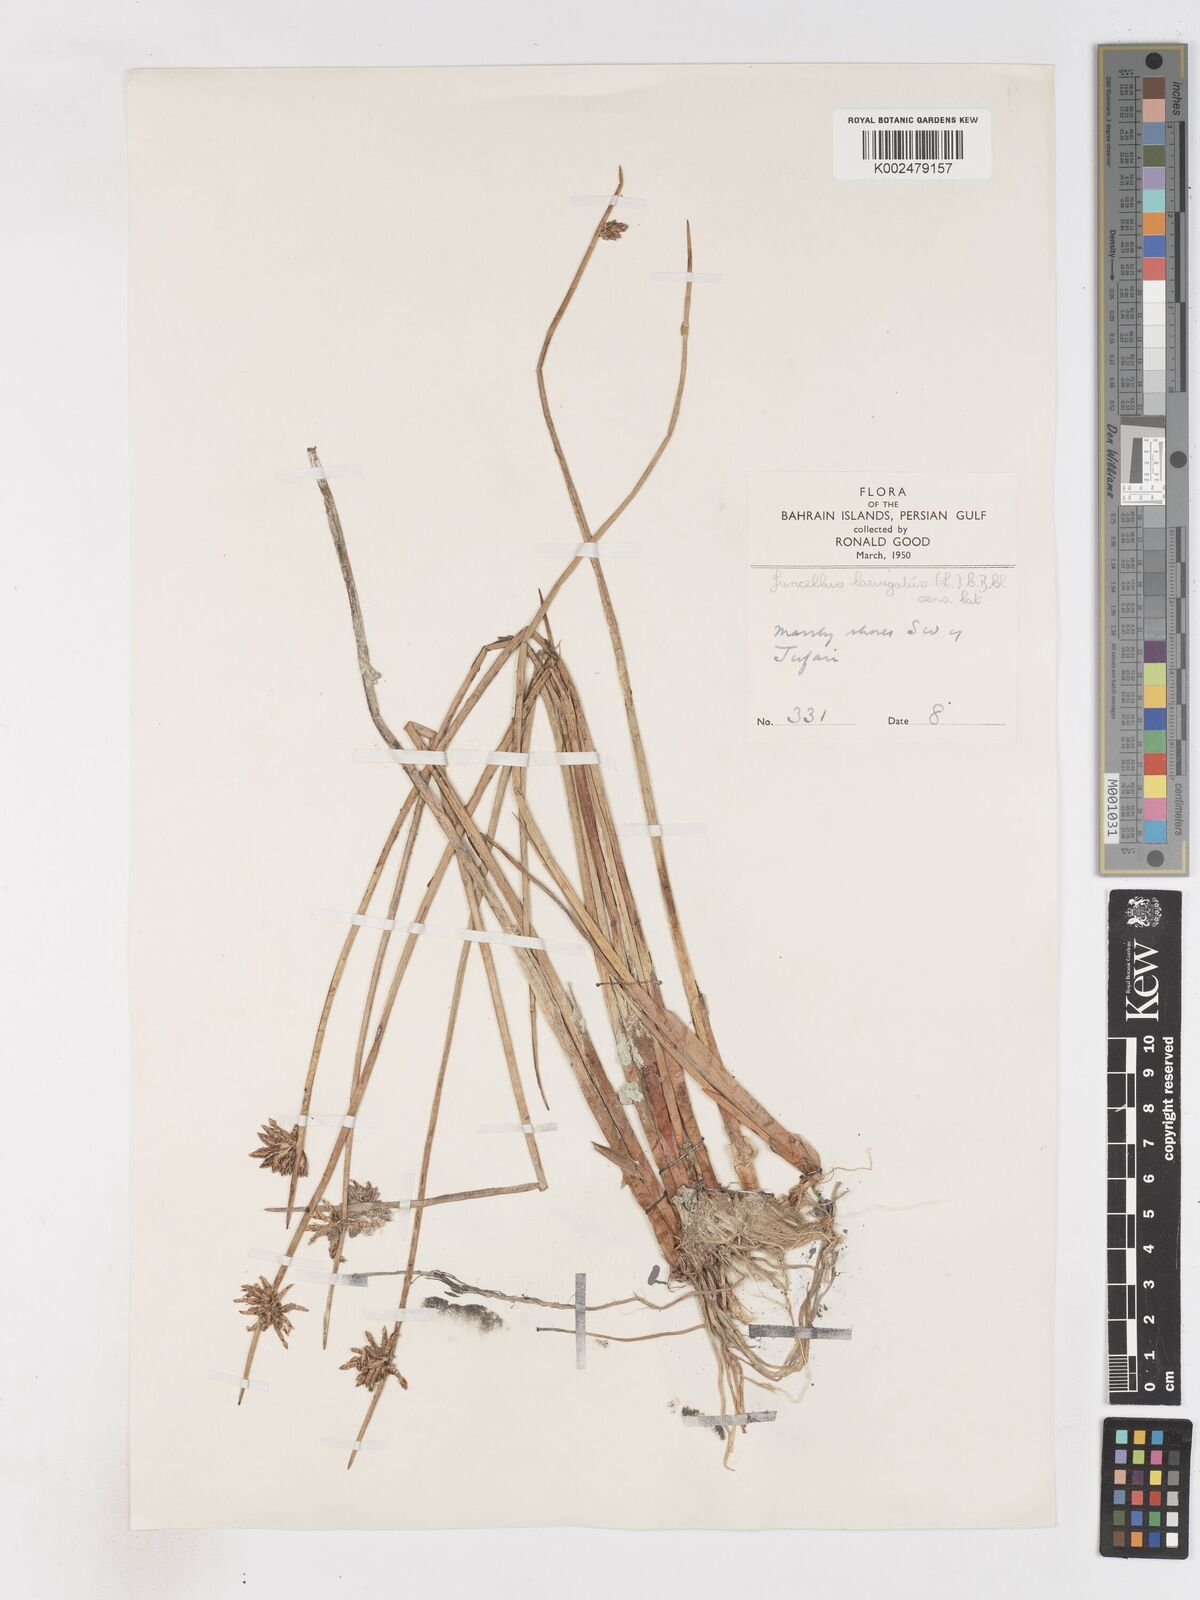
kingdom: Plantae
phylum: Tracheophyta
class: Liliopsida
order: Poales
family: Cyperaceae
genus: Cyperus
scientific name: Cyperus laevigatus
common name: Smooth flat sedge
